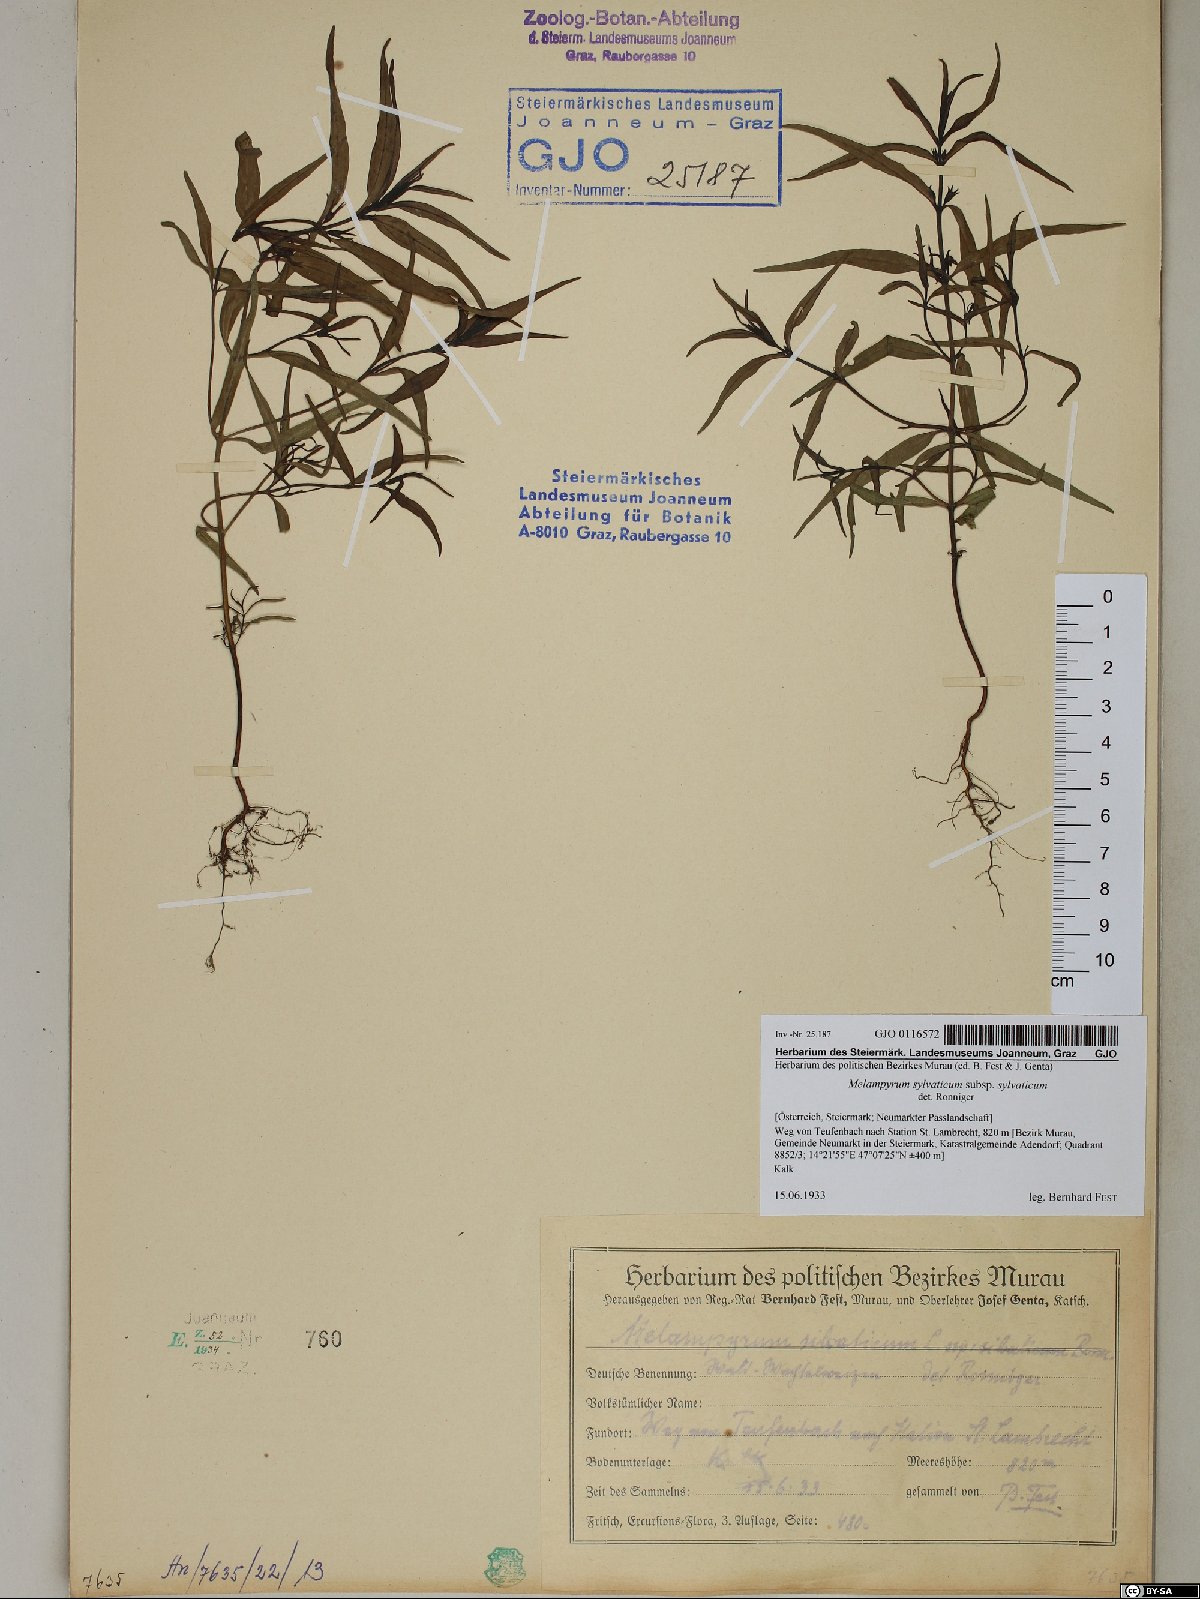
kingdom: Plantae
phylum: Tracheophyta
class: Magnoliopsida
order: Lamiales
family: Orobanchaceae
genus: Melampyrum
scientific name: Melampyrum sylvaticum
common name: Small cow-wheat
